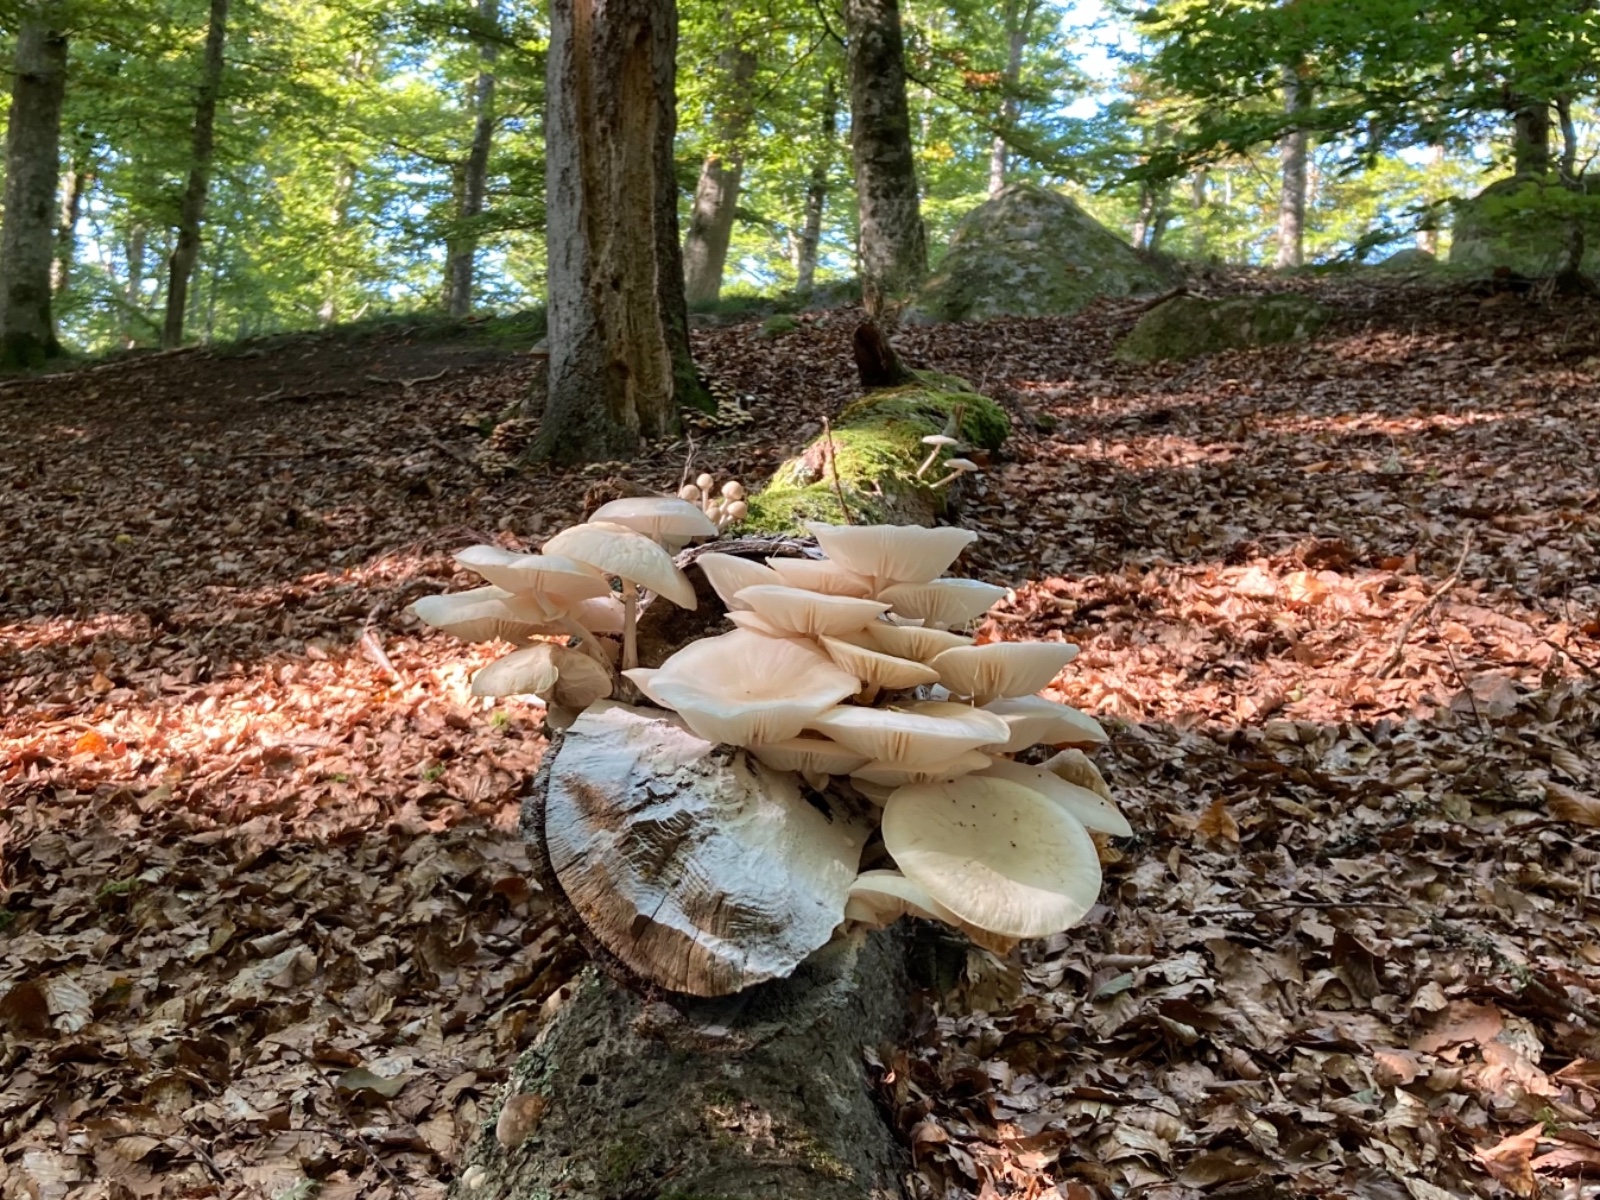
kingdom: Fungi
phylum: Basidiomycota
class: Agaricomycetes
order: Agaricales
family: Physalacriaceae
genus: Mucidula
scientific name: Mucidula mucida
